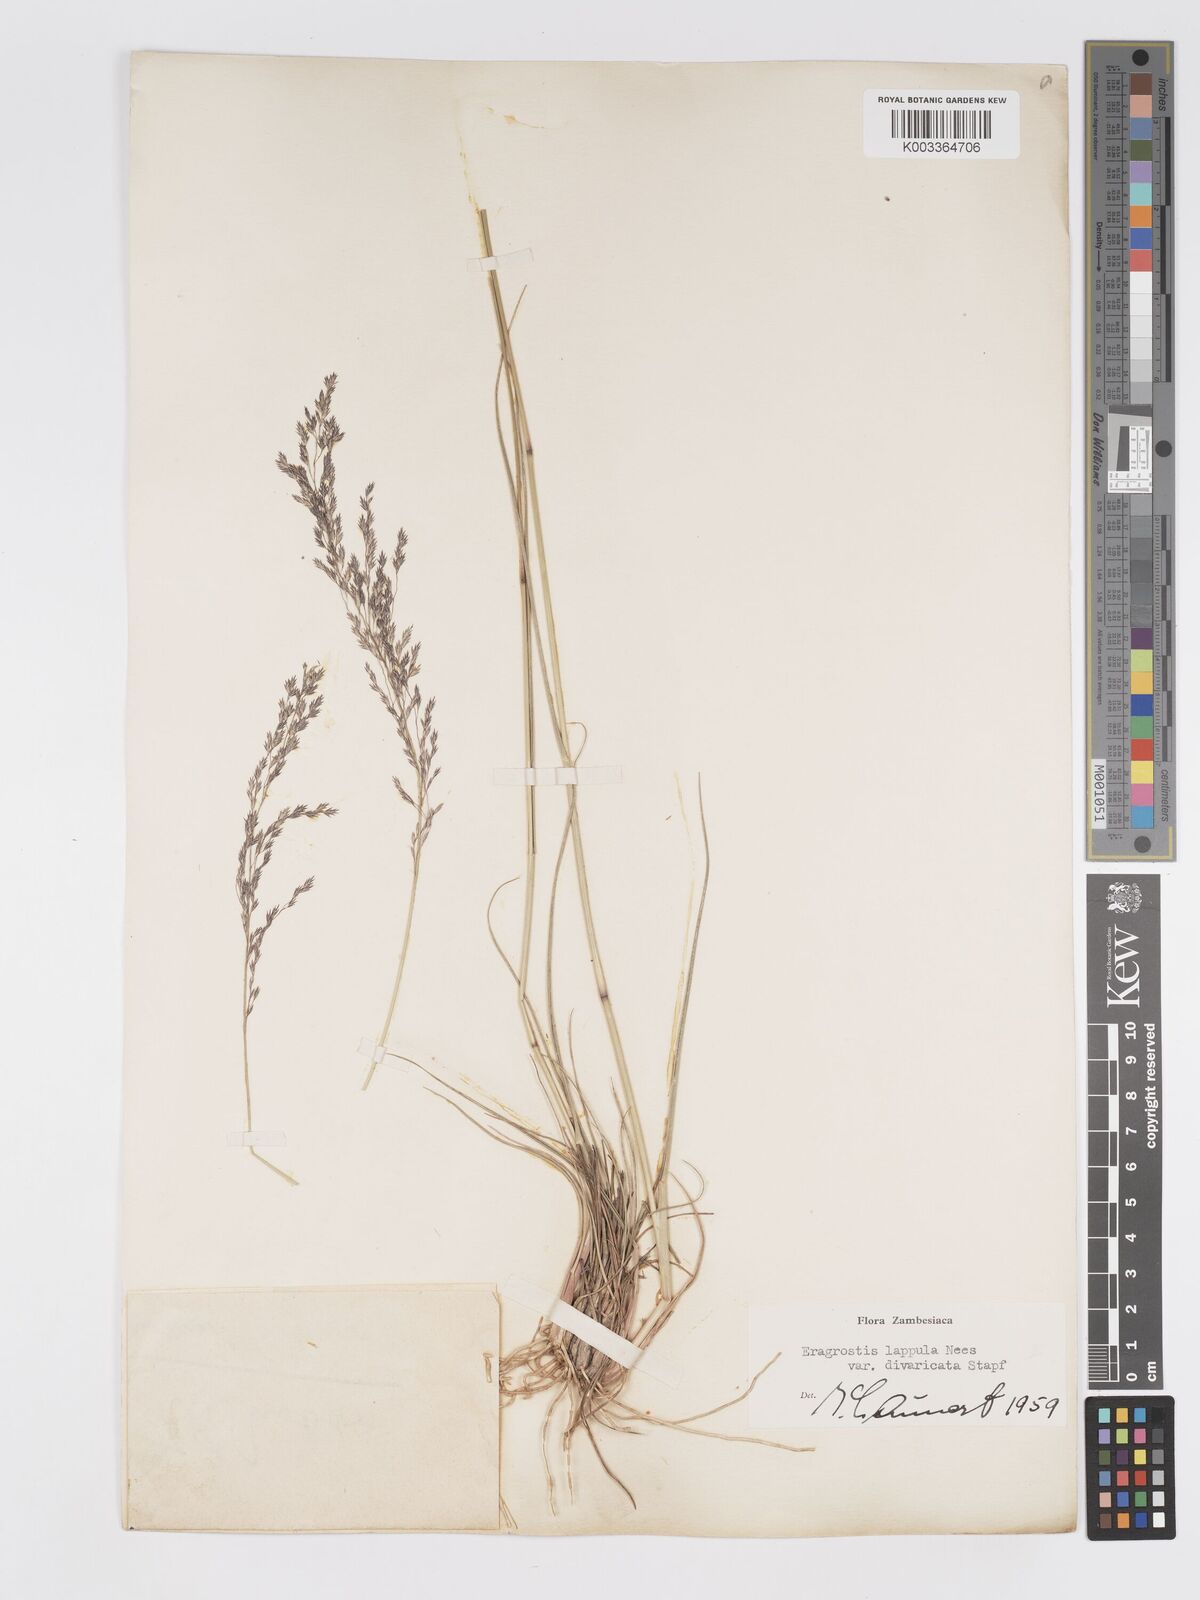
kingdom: Plantae
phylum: Tracheophyta
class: Liliopsida
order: Poales
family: Poaceae
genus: Eragrostis
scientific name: Eragrostis lappula
